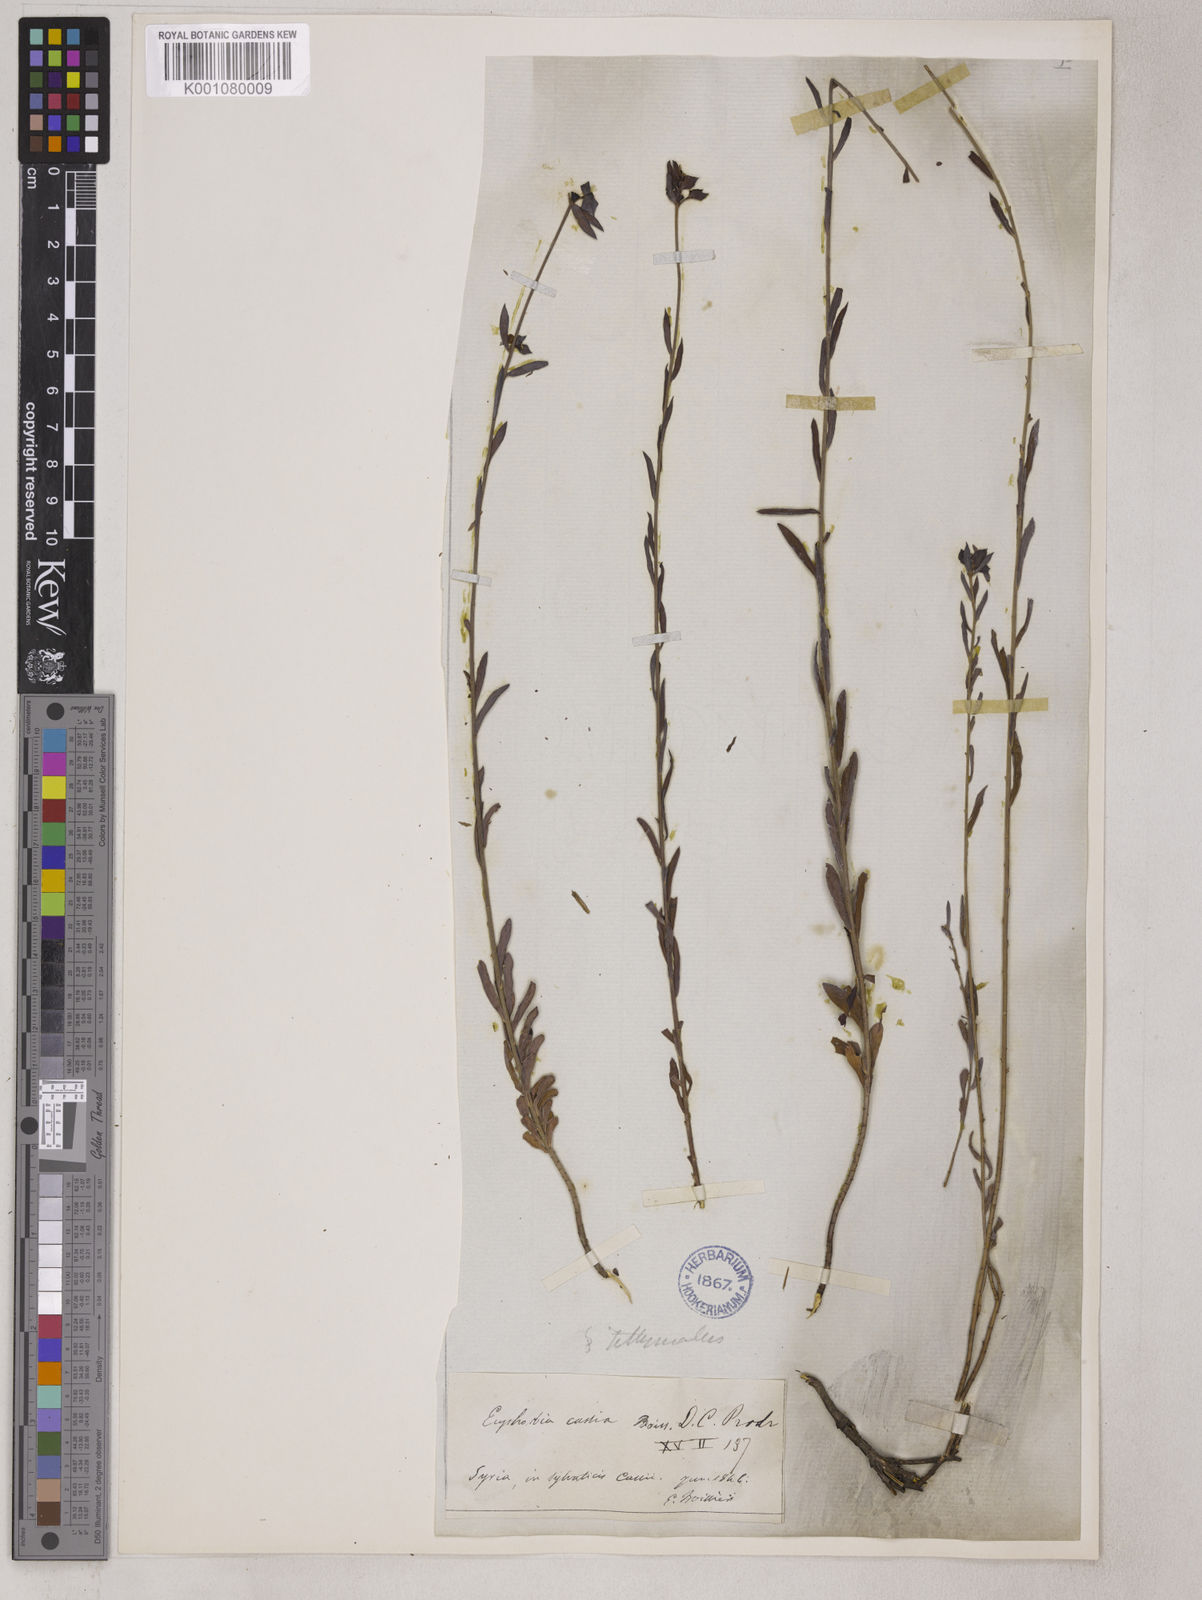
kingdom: Plantae
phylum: Tracheophyta
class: Magnoliopsida
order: Malpighiales
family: Euphorbiaceae
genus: Euphorbia
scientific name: Euphorbia cassia
